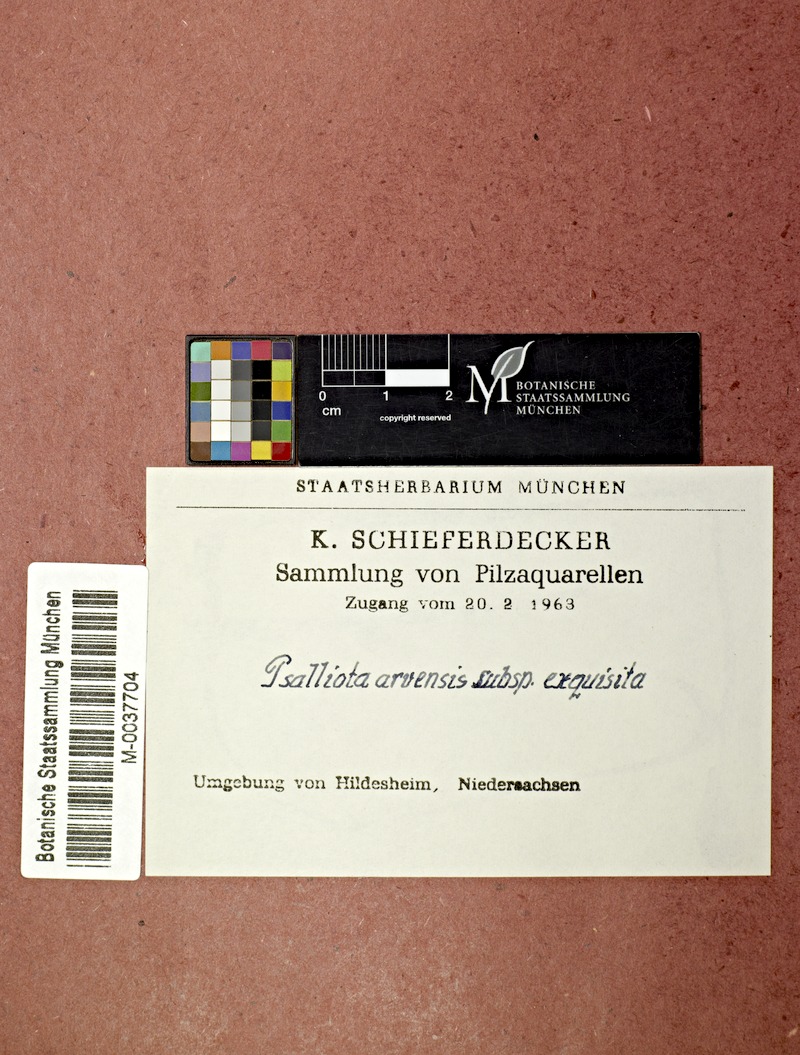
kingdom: Fungi
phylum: Basidiomycota
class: Agaricomycetes
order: Agaricales
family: Agaricaceae
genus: Agaricus
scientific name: Agaricus arvensis
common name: Horse mushroom
